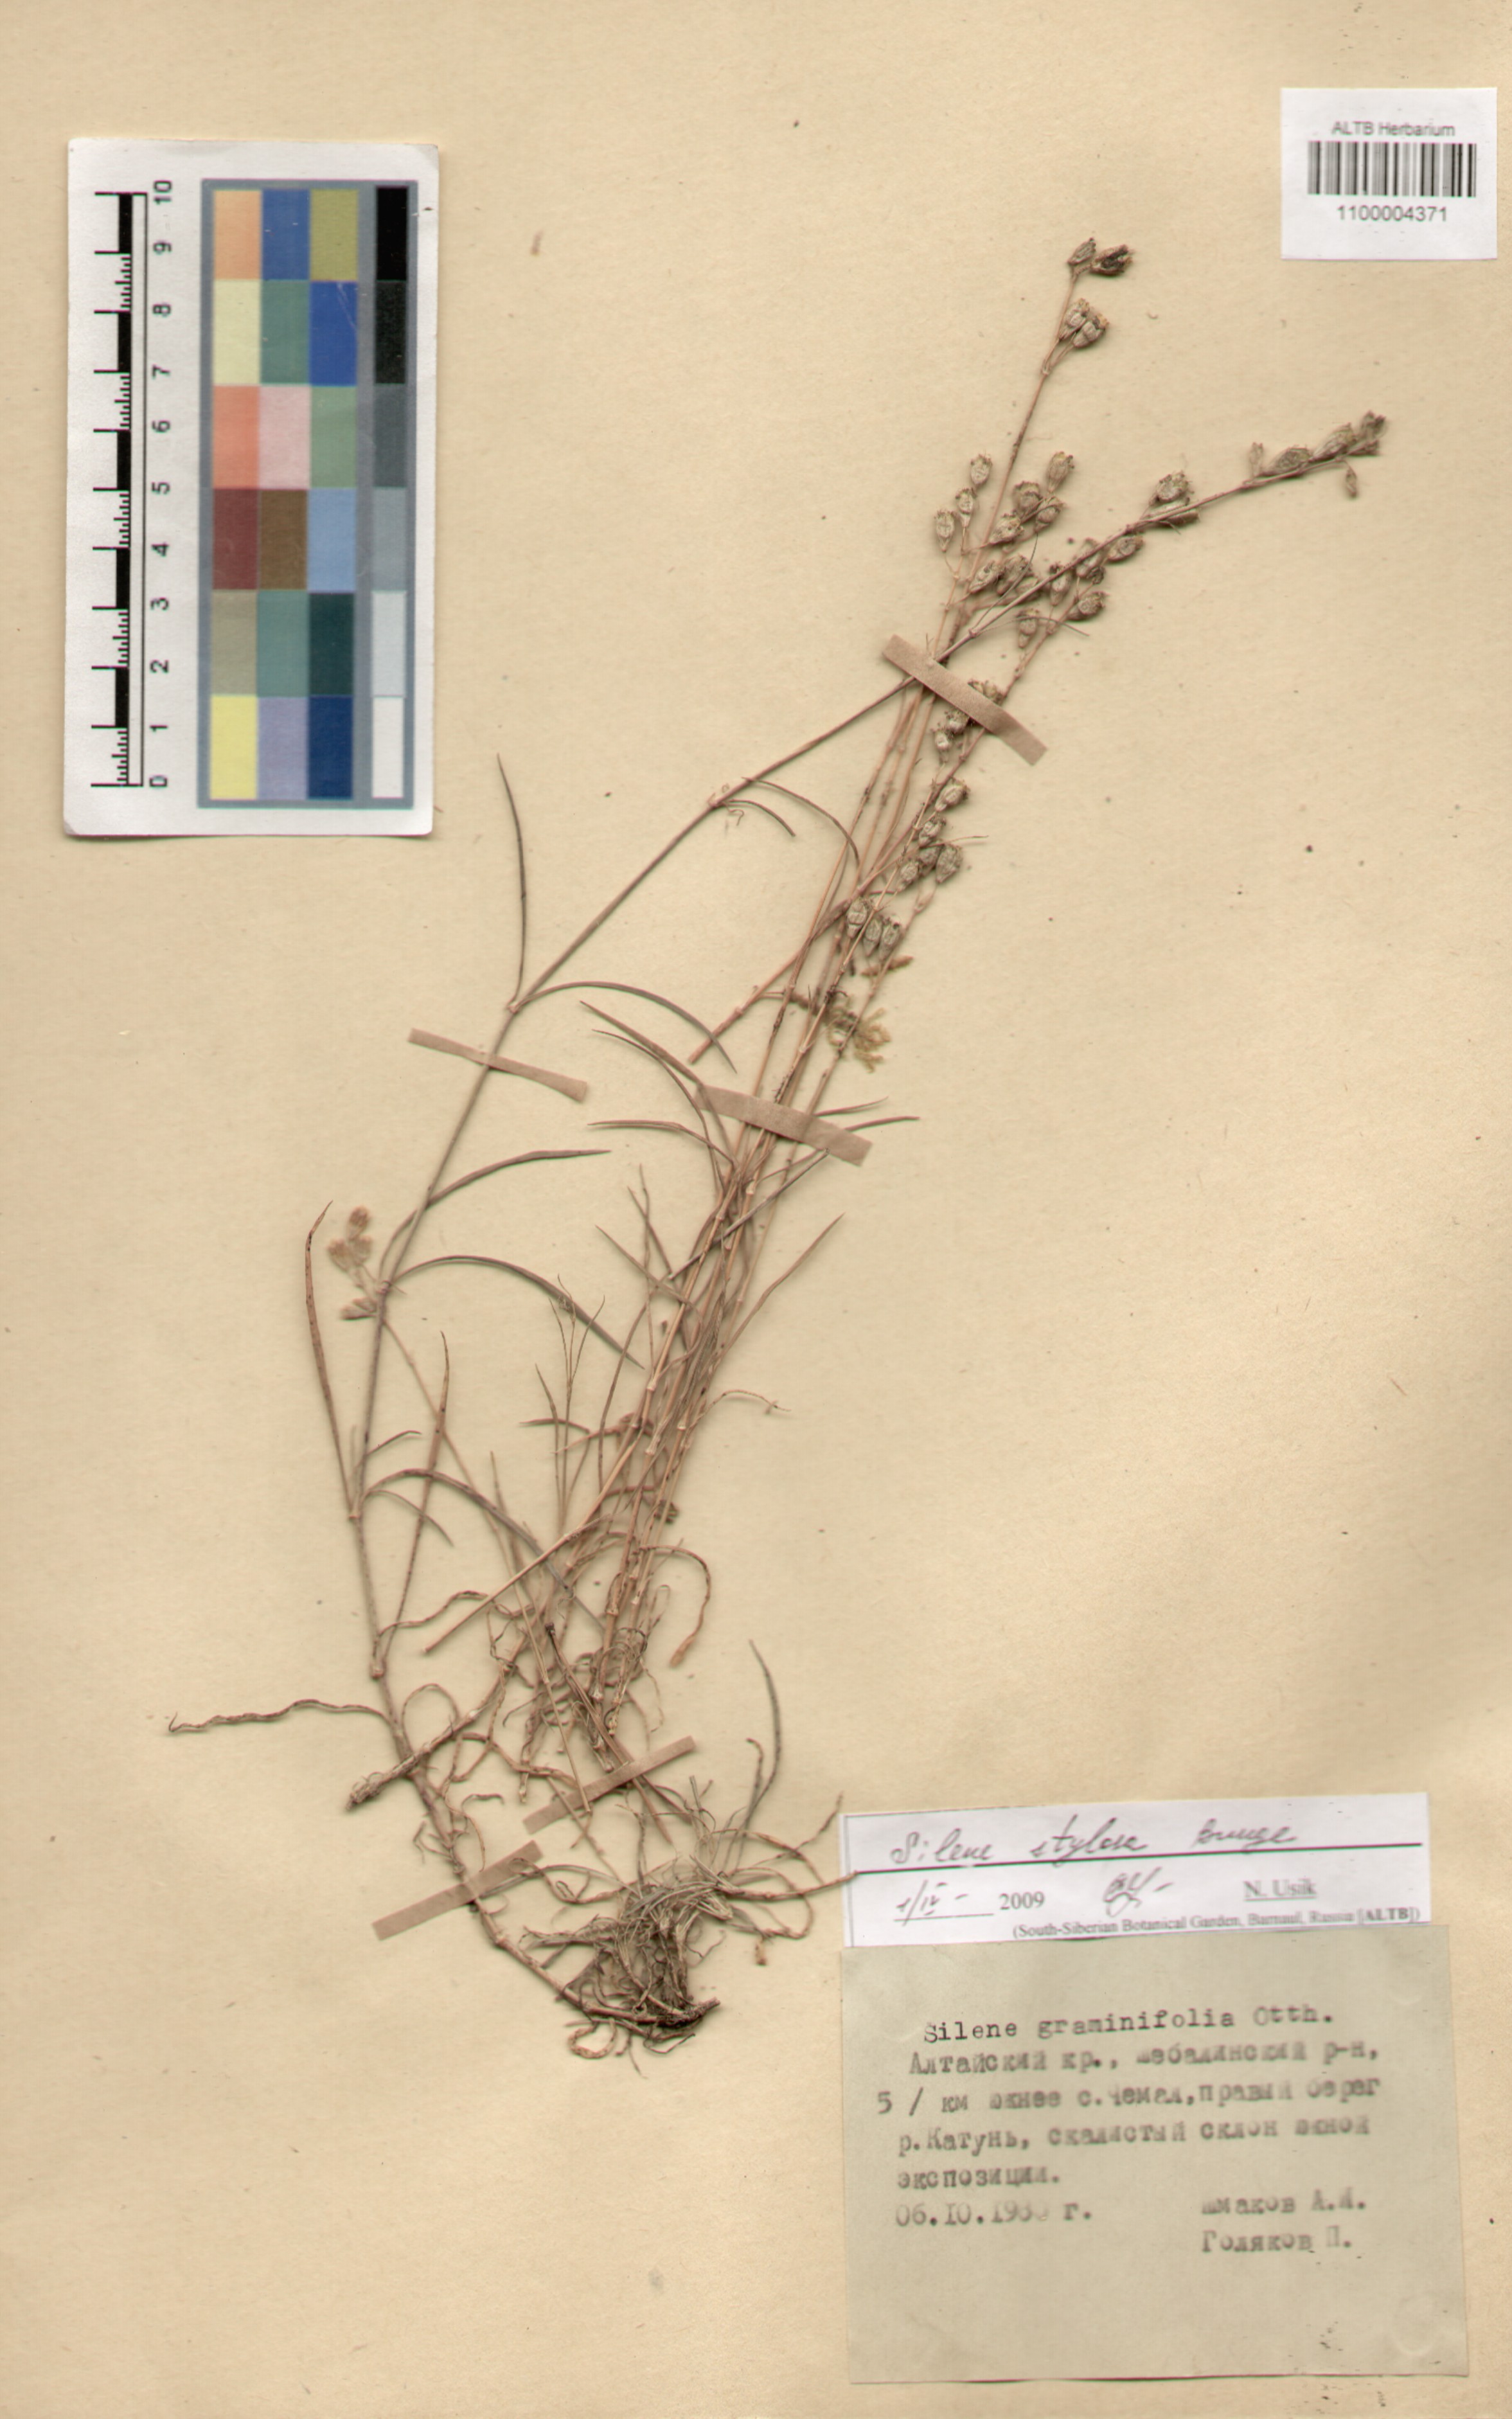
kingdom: Plantae
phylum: Tracheophyta
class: Magnoliopsida
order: Caryophyllales
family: Caryophyllaceae
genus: Silene
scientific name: Silene graminifolia
